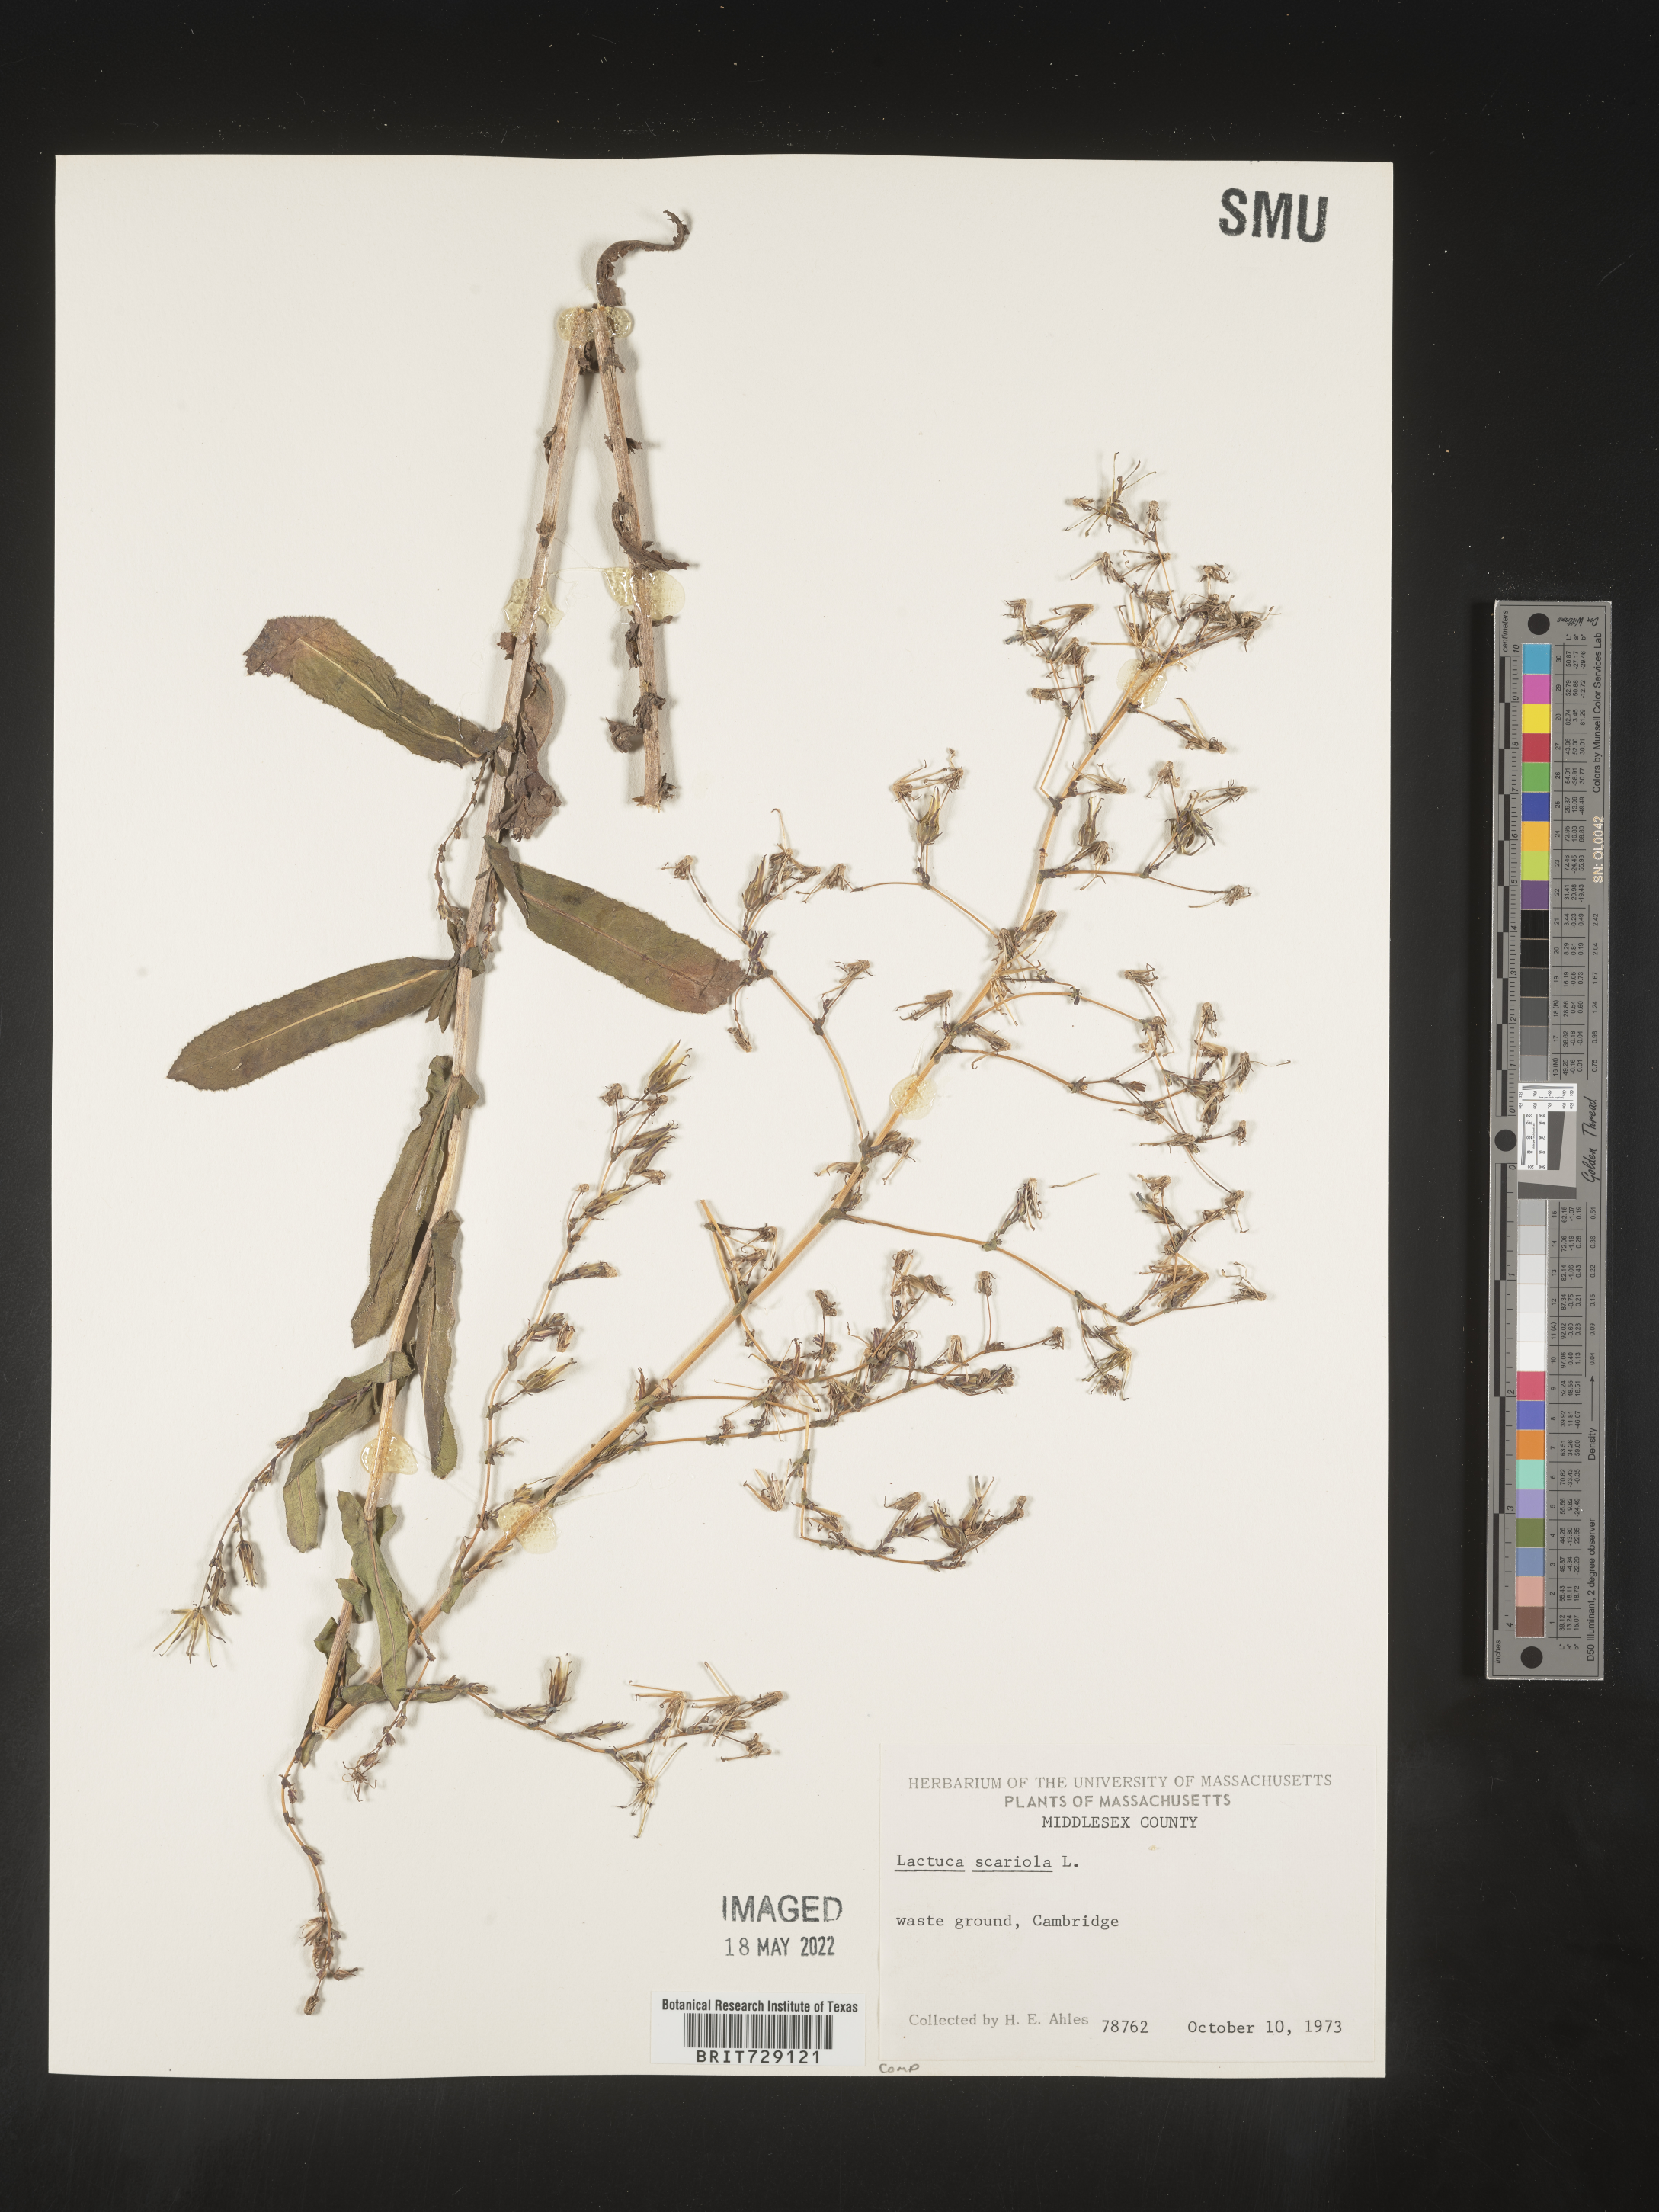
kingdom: Plantae
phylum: Tracheophyta
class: Magnoliopsida
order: Asterales
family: Asteraceae
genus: Lactuca
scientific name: Lactuca serriola
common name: Prickly lettuce
